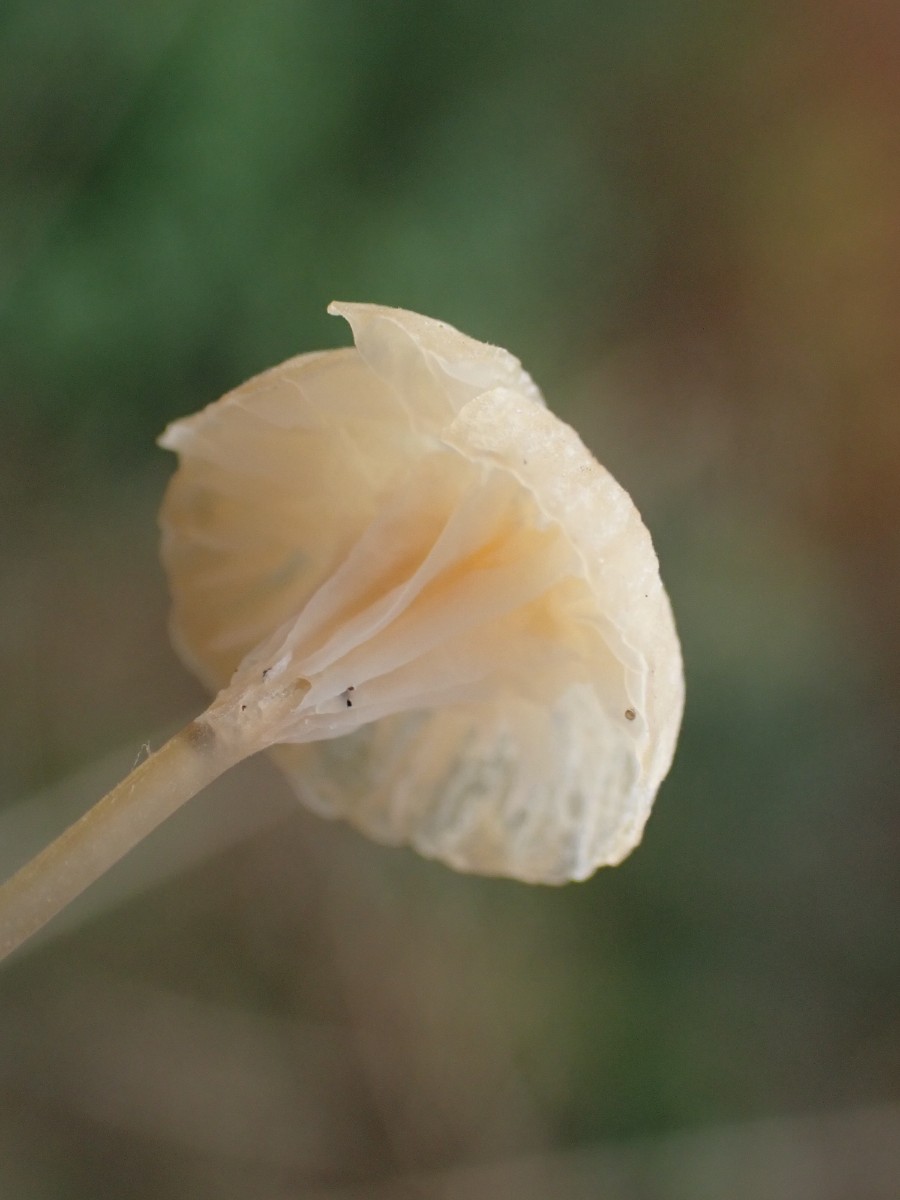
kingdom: Fungi
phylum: Basidiomycota
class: Agaricomycetes
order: Hymenochaetales
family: Rickenellaceae
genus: Rickenella
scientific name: Rickenella fibula
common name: orange mosnavlehat
